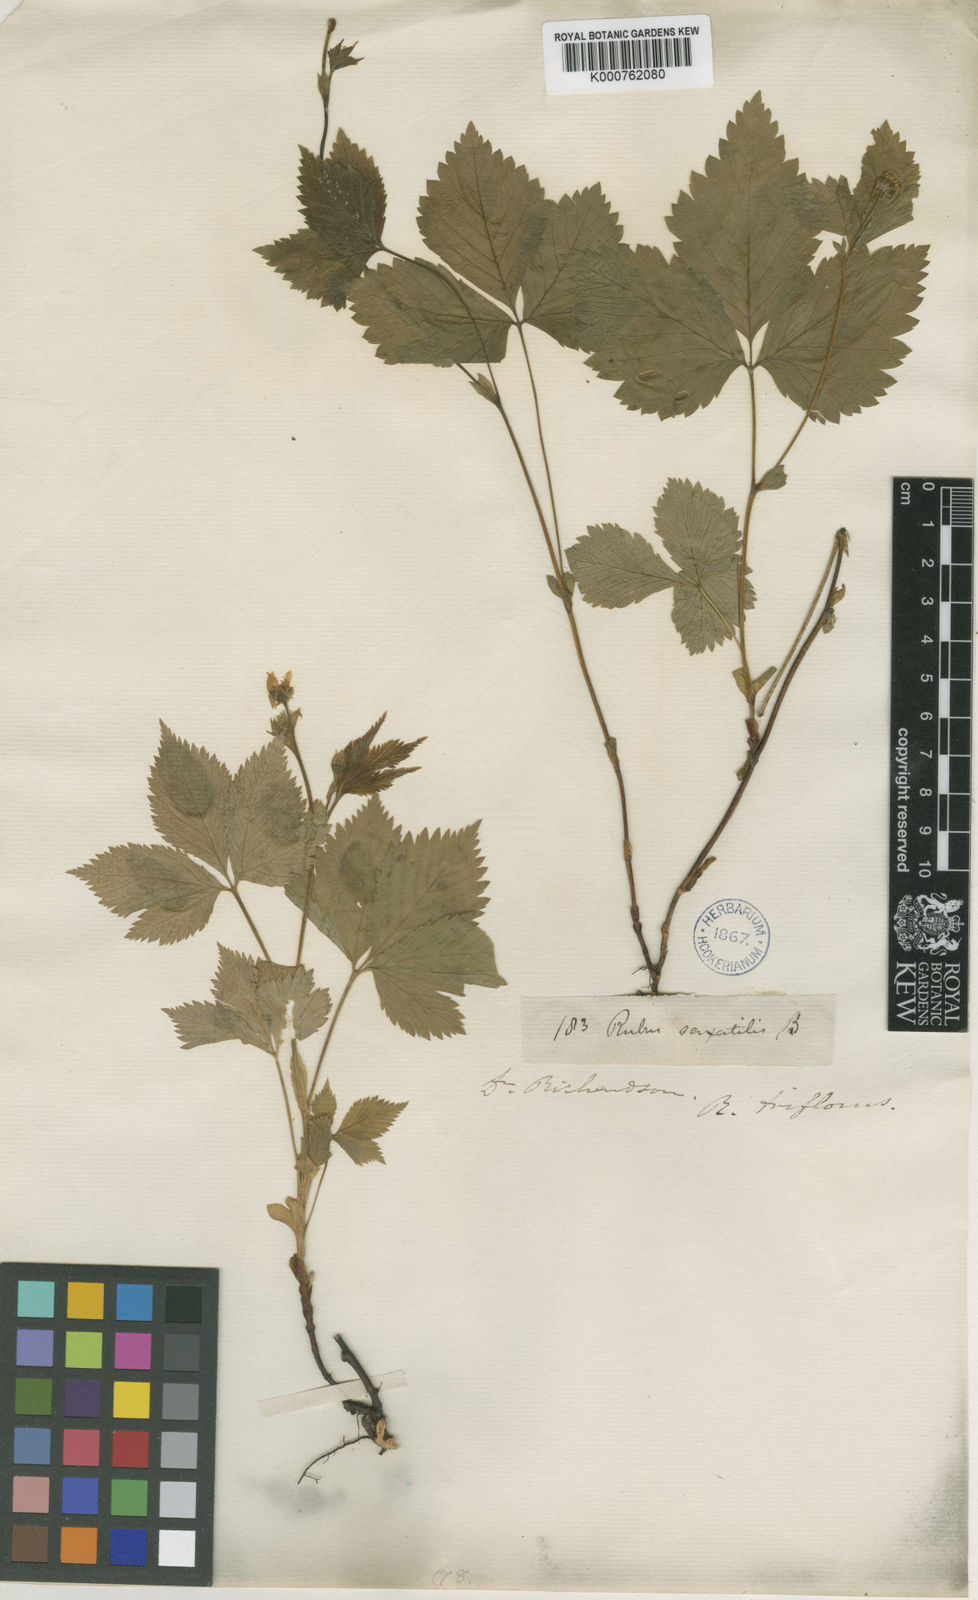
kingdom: Plantae
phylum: Tracheophyta
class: Magnoliopsida
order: Rosales
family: Rosaceae
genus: Rubus
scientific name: Rubus
